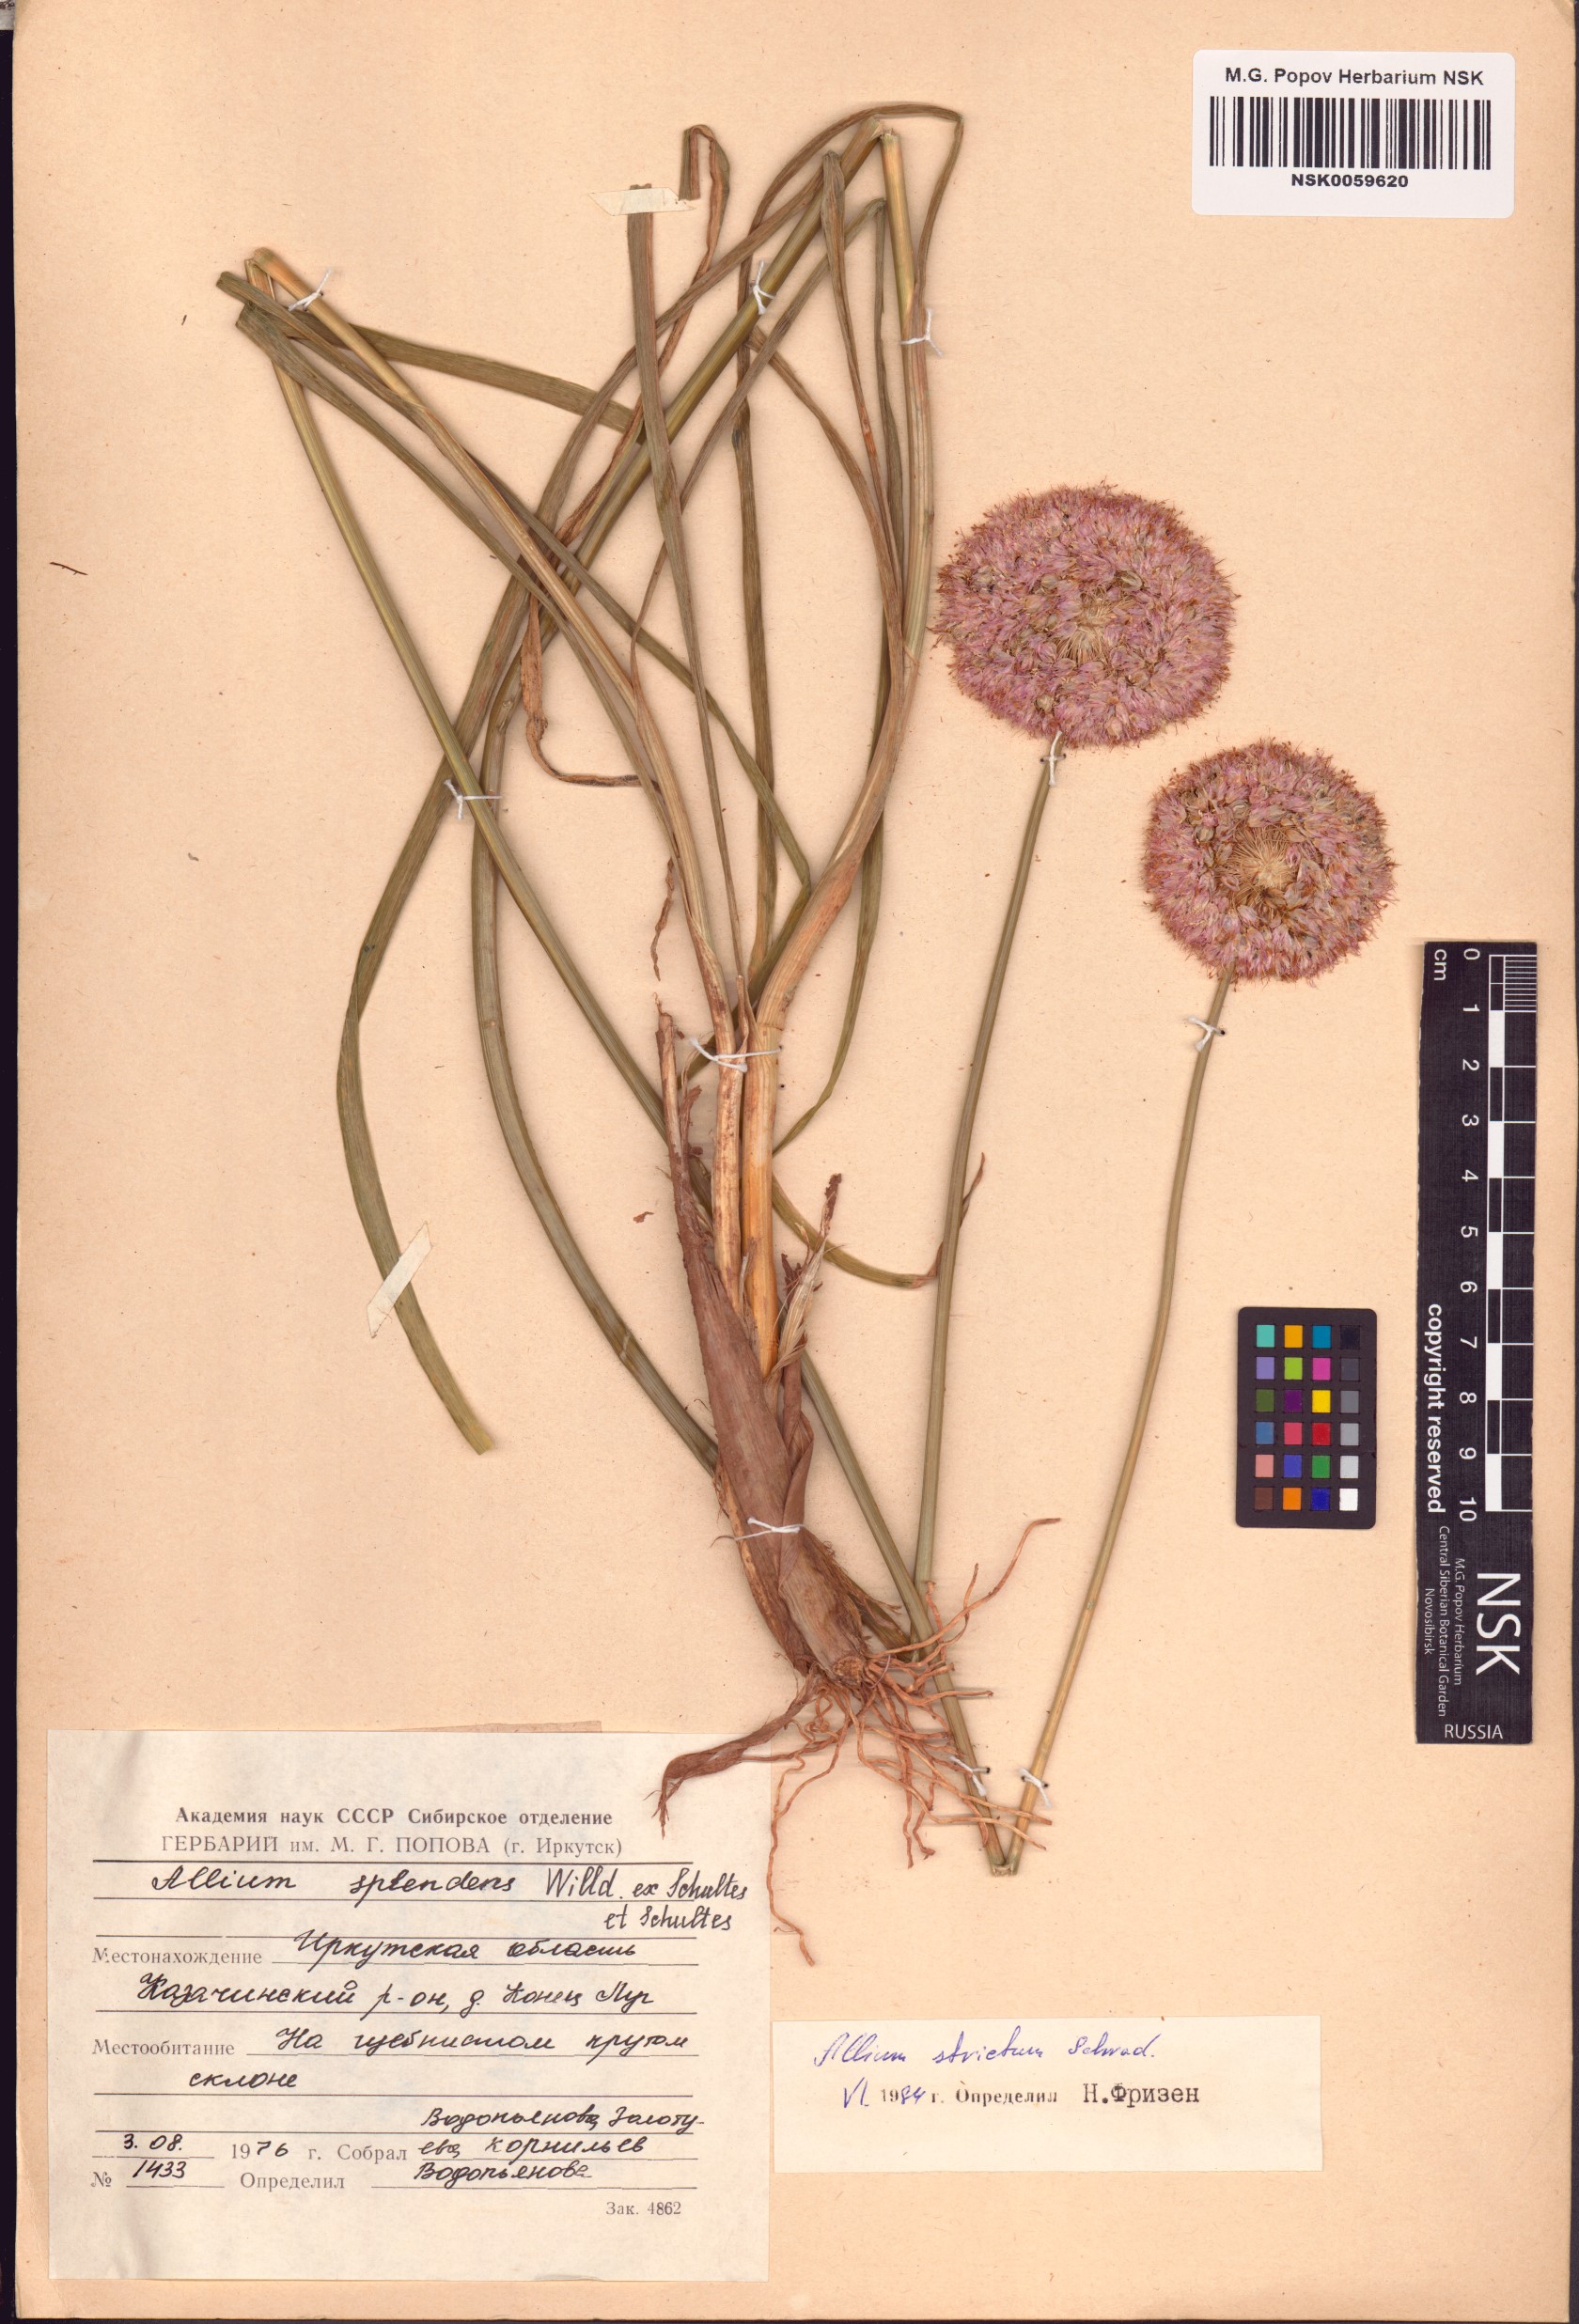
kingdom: Plantae
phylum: Tracheophyta
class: Liliopsida
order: Asparagales
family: Amaryllidaceae
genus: Allium
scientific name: Allium strictum
